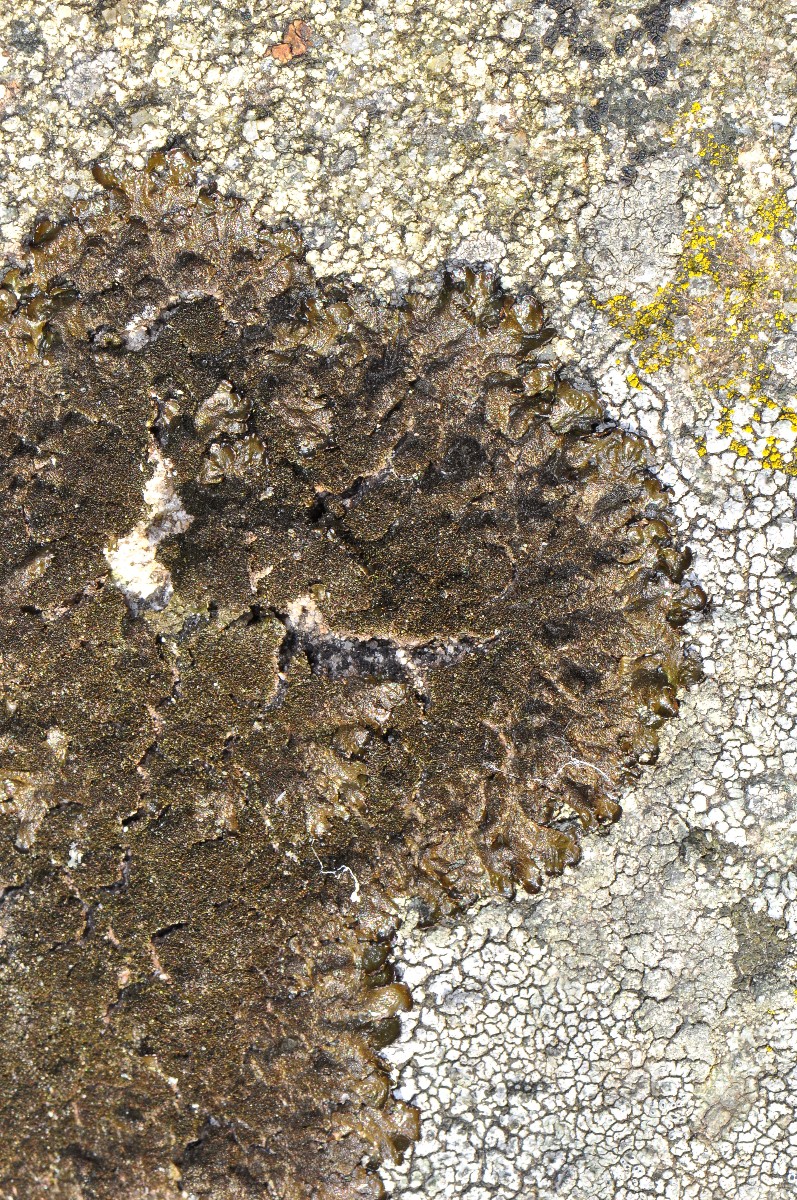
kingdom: Fungi
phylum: Ascomycota
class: Lecanoromycetes
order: Lecanorales
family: Parmeliaceae
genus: Melanelixia
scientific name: Melanelixia fuliginosa
